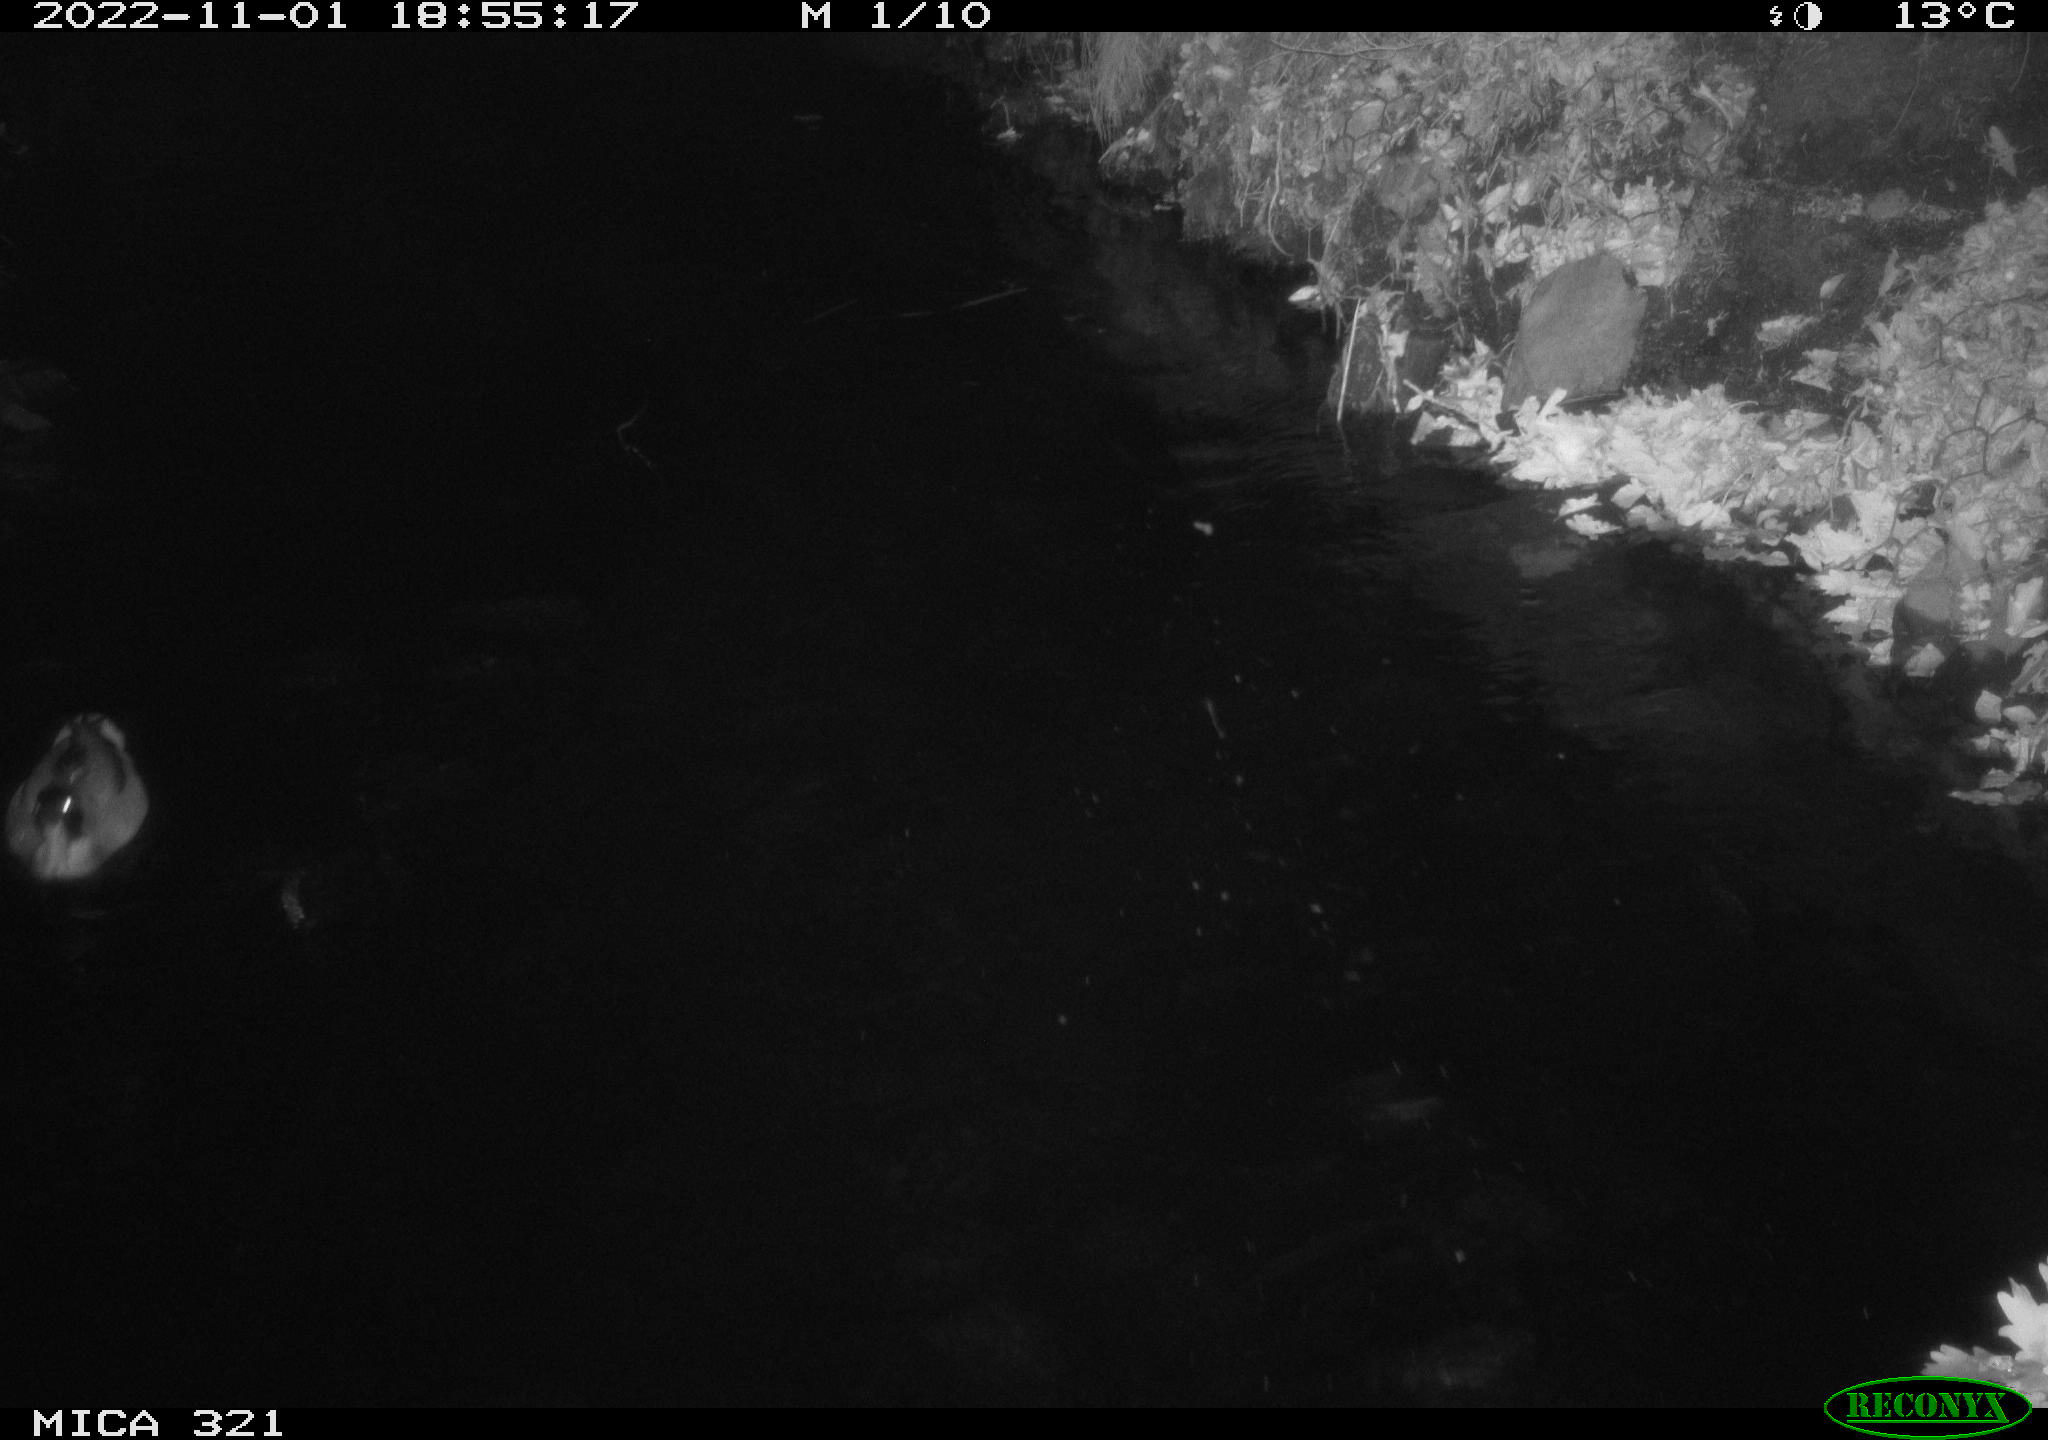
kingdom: Animalia
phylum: Chordata
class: Aves
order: Anseriformes
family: Anatidae
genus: Anas
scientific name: Anas
